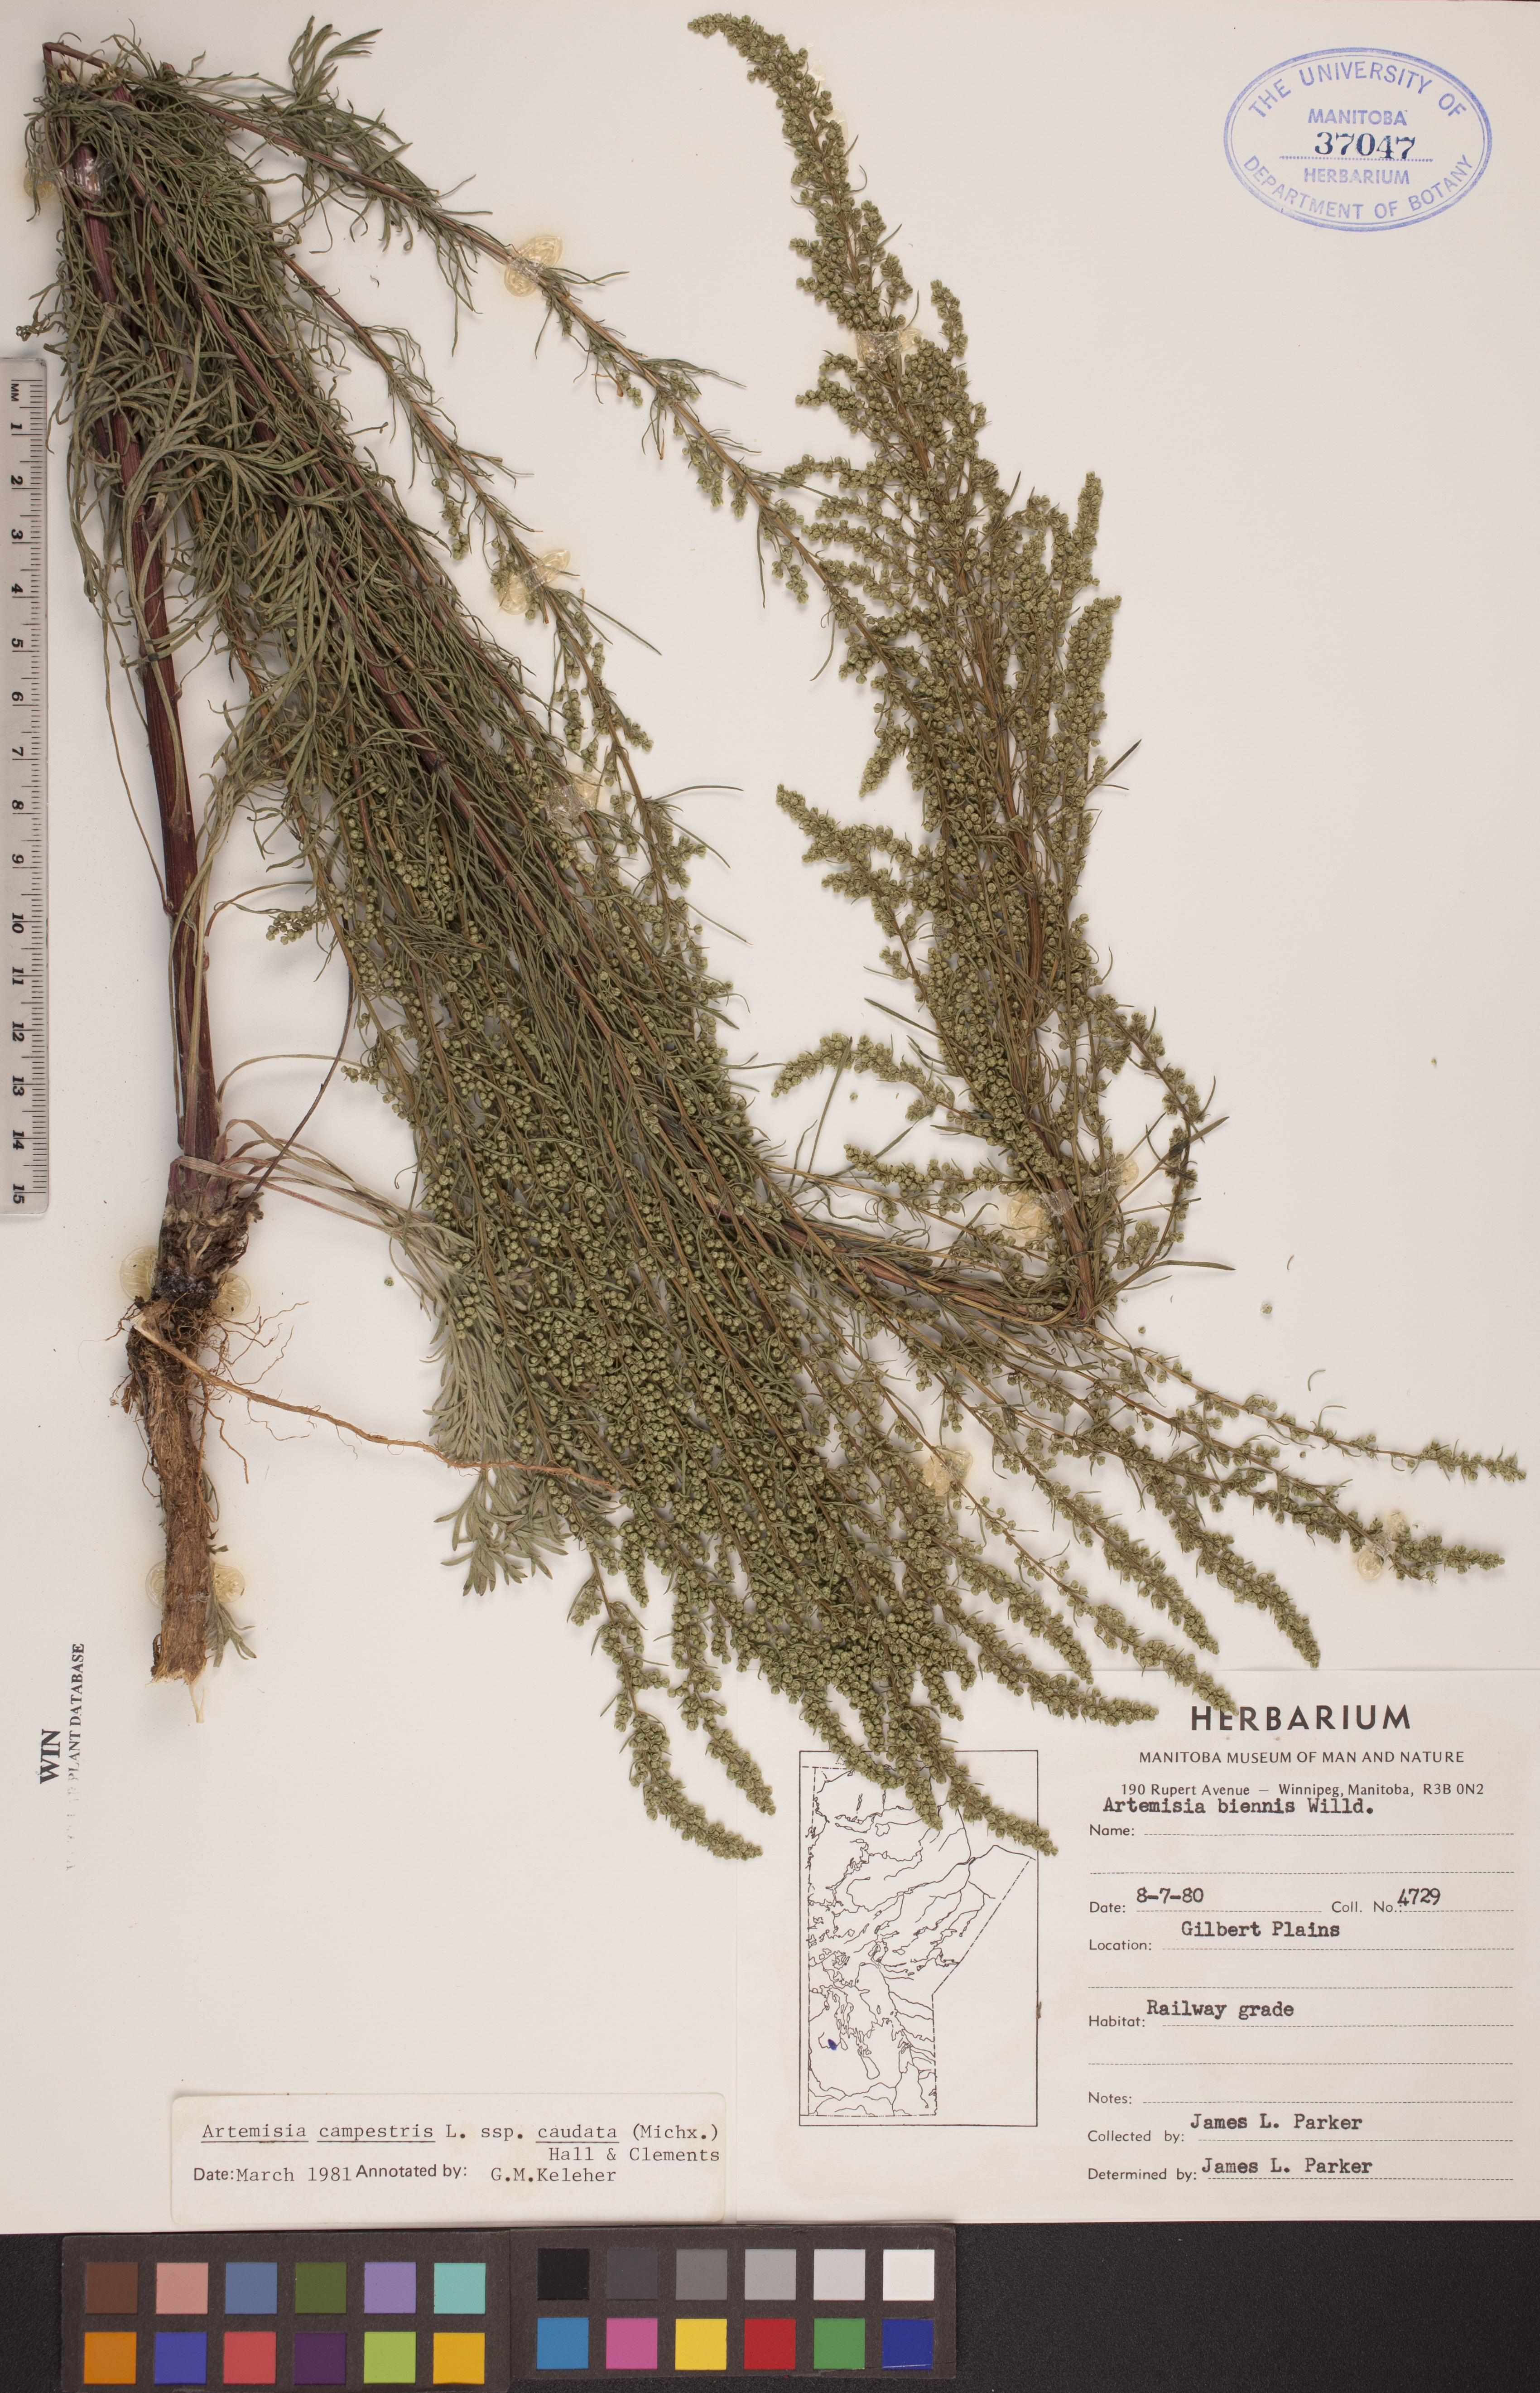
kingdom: Plantae
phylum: Tracheophyta
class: Magnoliopsida
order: Asterales
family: Asteraceae
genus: Artemisia
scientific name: Artemisia campestris
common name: Field wormwood
